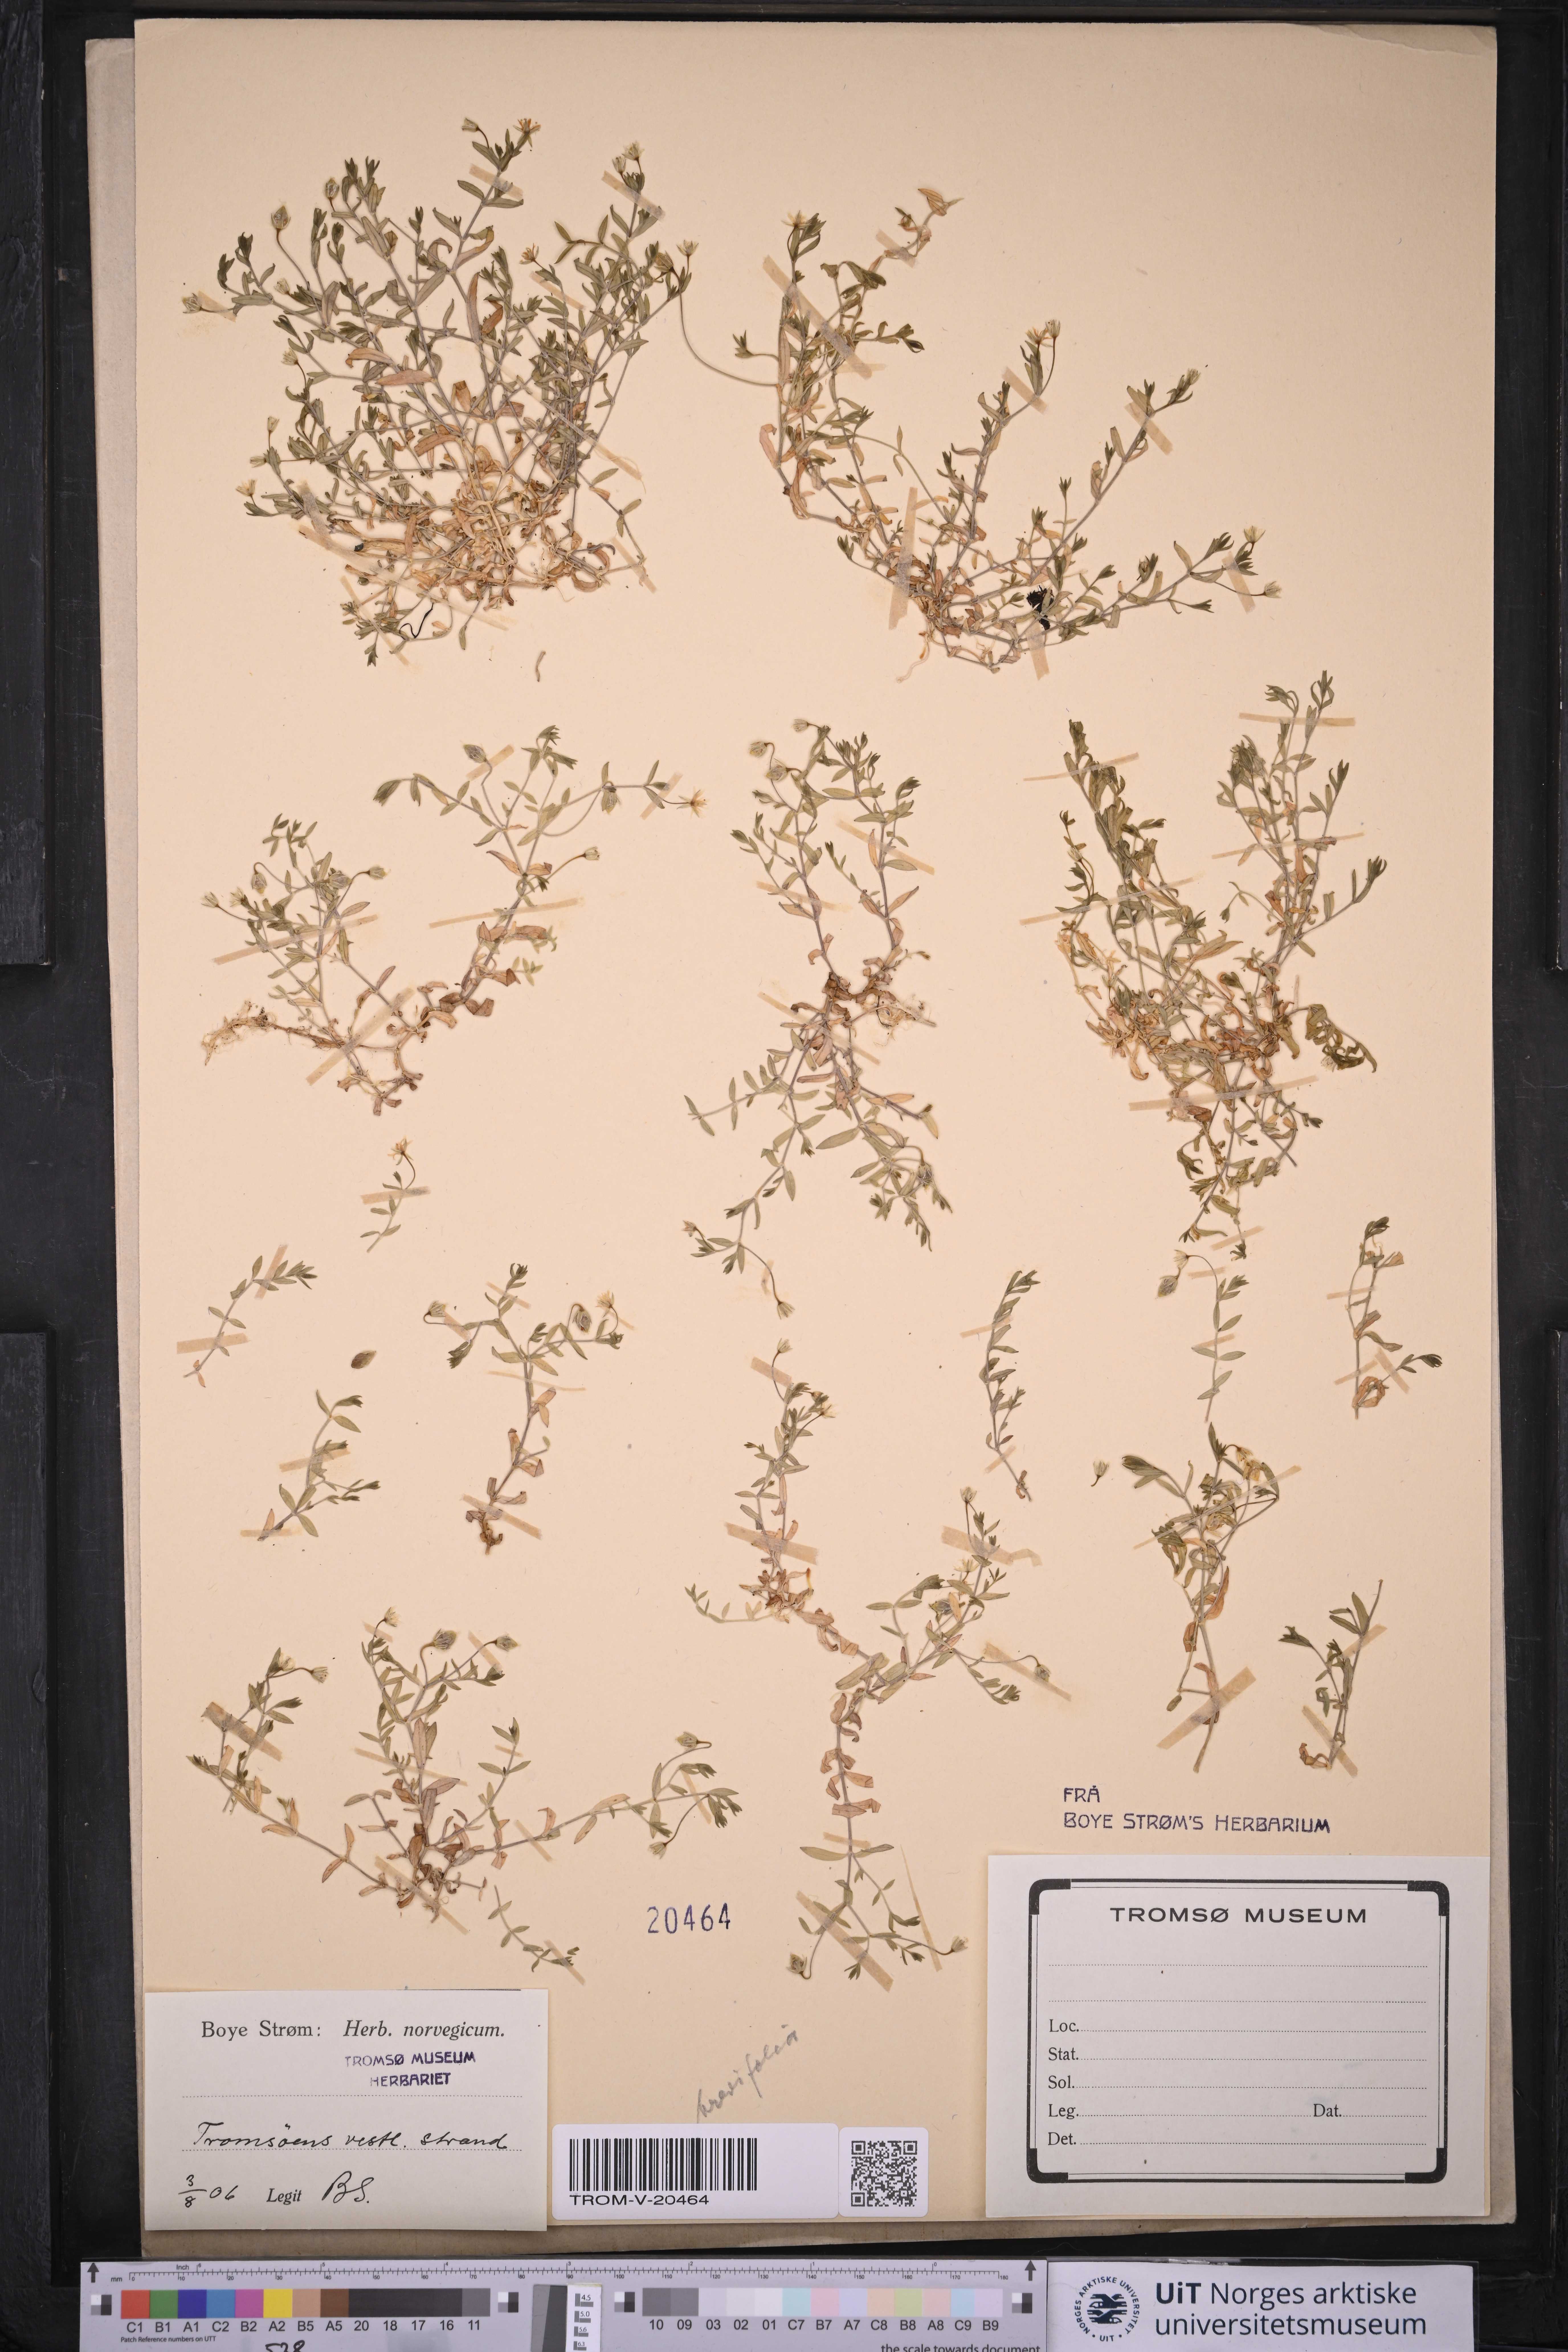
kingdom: Plantae
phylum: Tracheophyta
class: Magnoliopsida
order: Caryophyllales
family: Caryophyllaceae
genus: Stellaria
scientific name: Stellaria crassifolia
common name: Fleshy starwort
